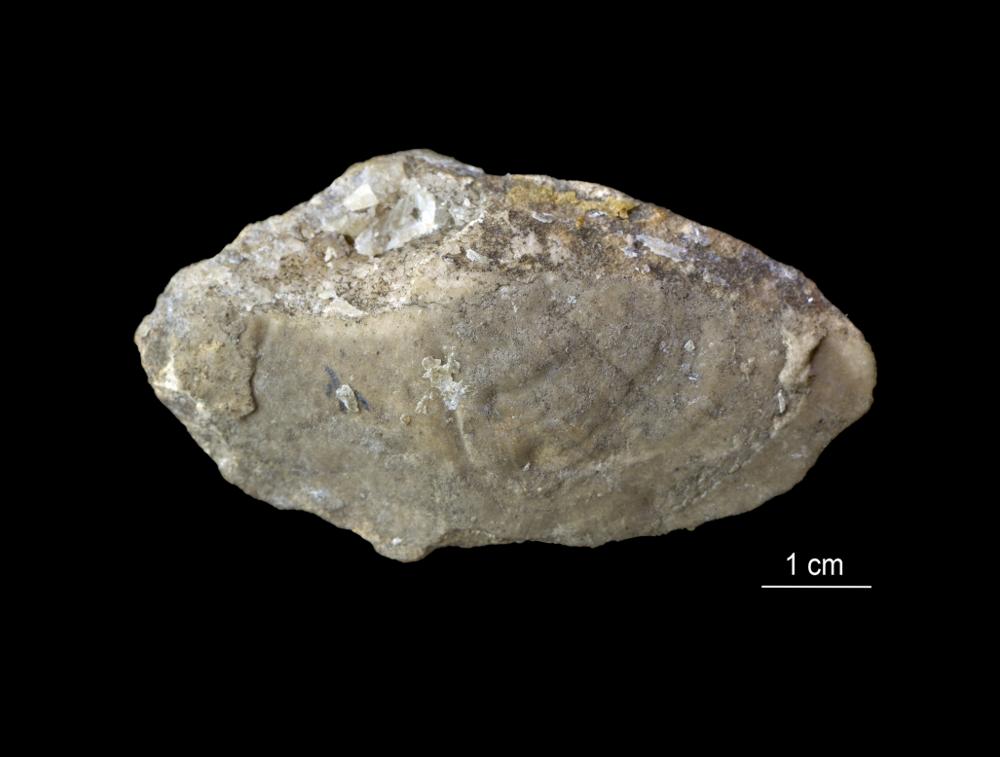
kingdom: Animalia
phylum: Mollusca
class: Bivalvia
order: Lucinida
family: Lucinidae
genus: Illionia
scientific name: Illionia Lucina prisca
